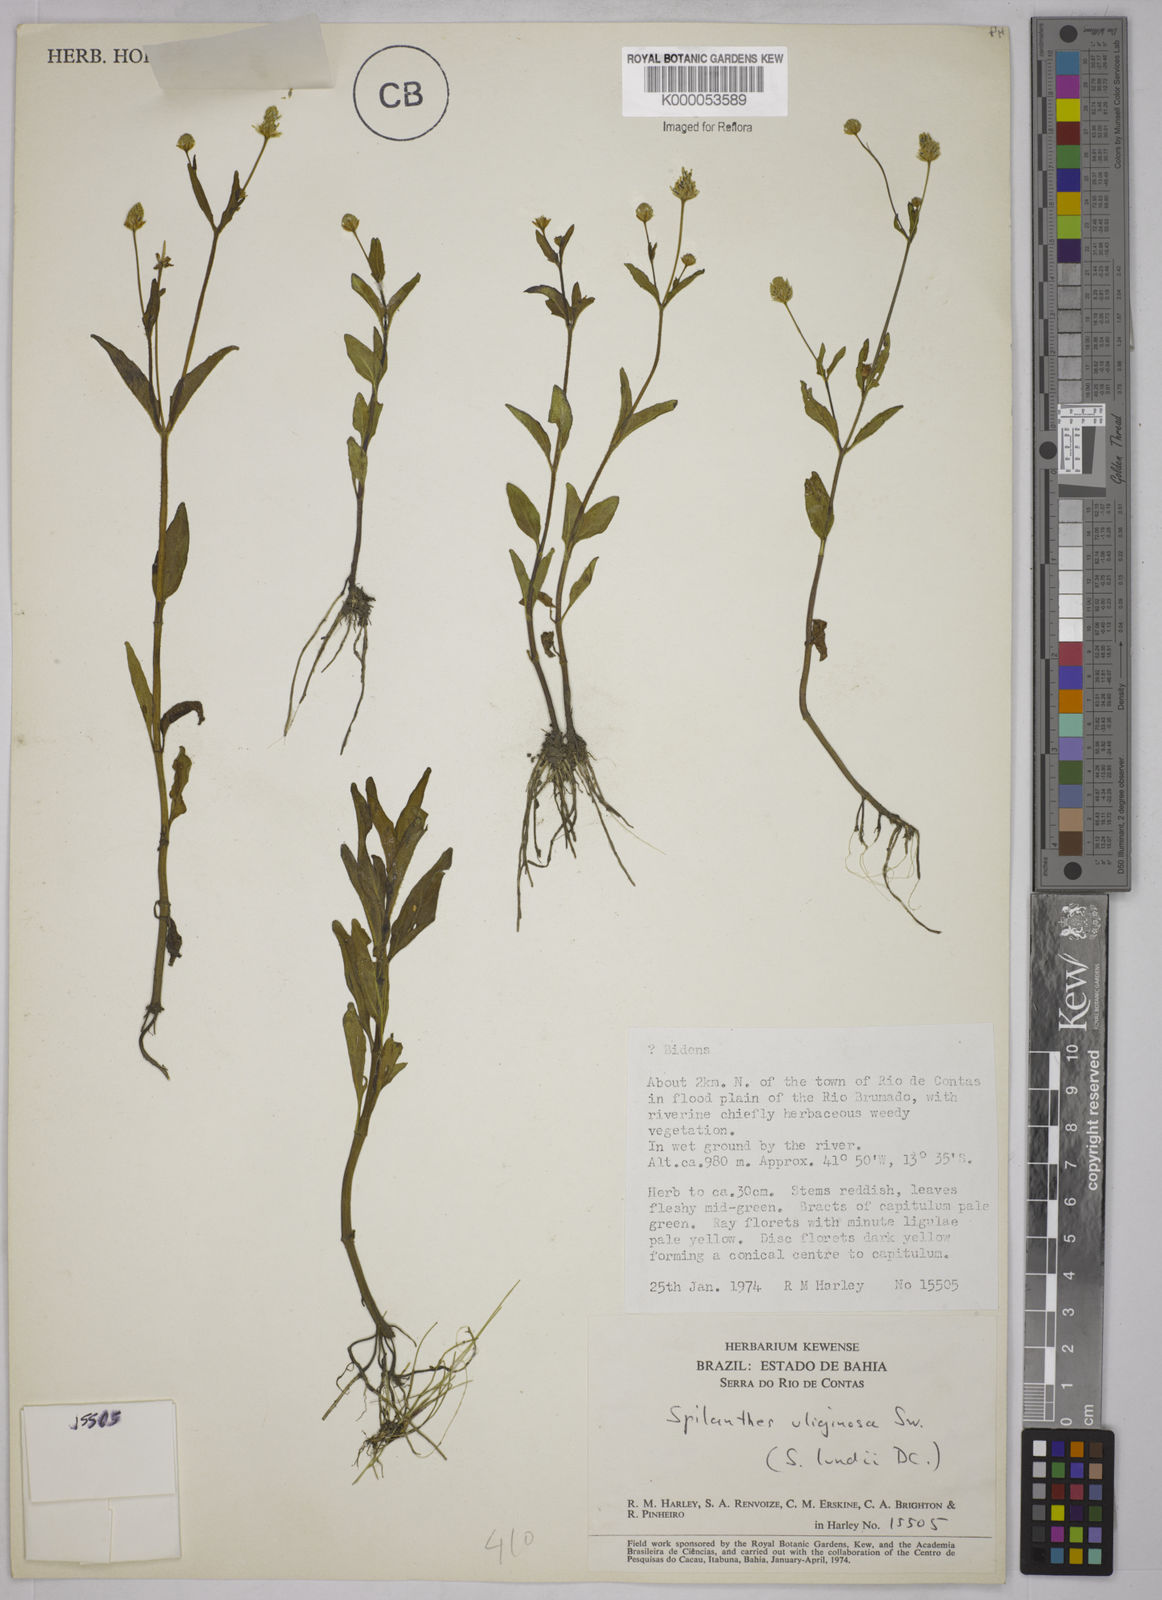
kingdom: Plantae
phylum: Tracheophyta
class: Magnoliopsida
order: Asterales
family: Asteraceae
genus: Acmella
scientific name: Acmella uliginosa
